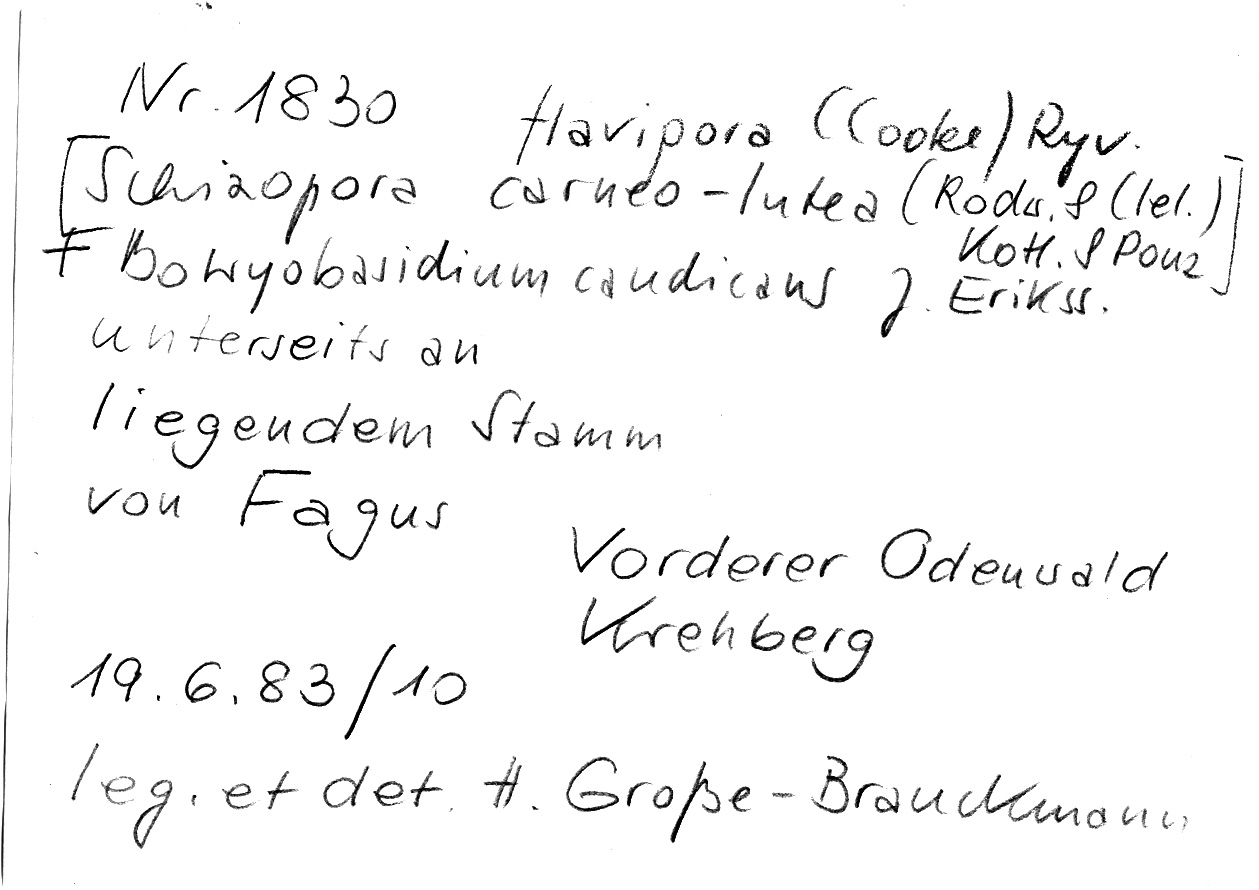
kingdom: Fungi
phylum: Basidiomycota
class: Agaricomycetes
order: Hymenochaetales
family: Schizoporaceae
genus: Xylodon
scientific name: Xylodon flaviporus
